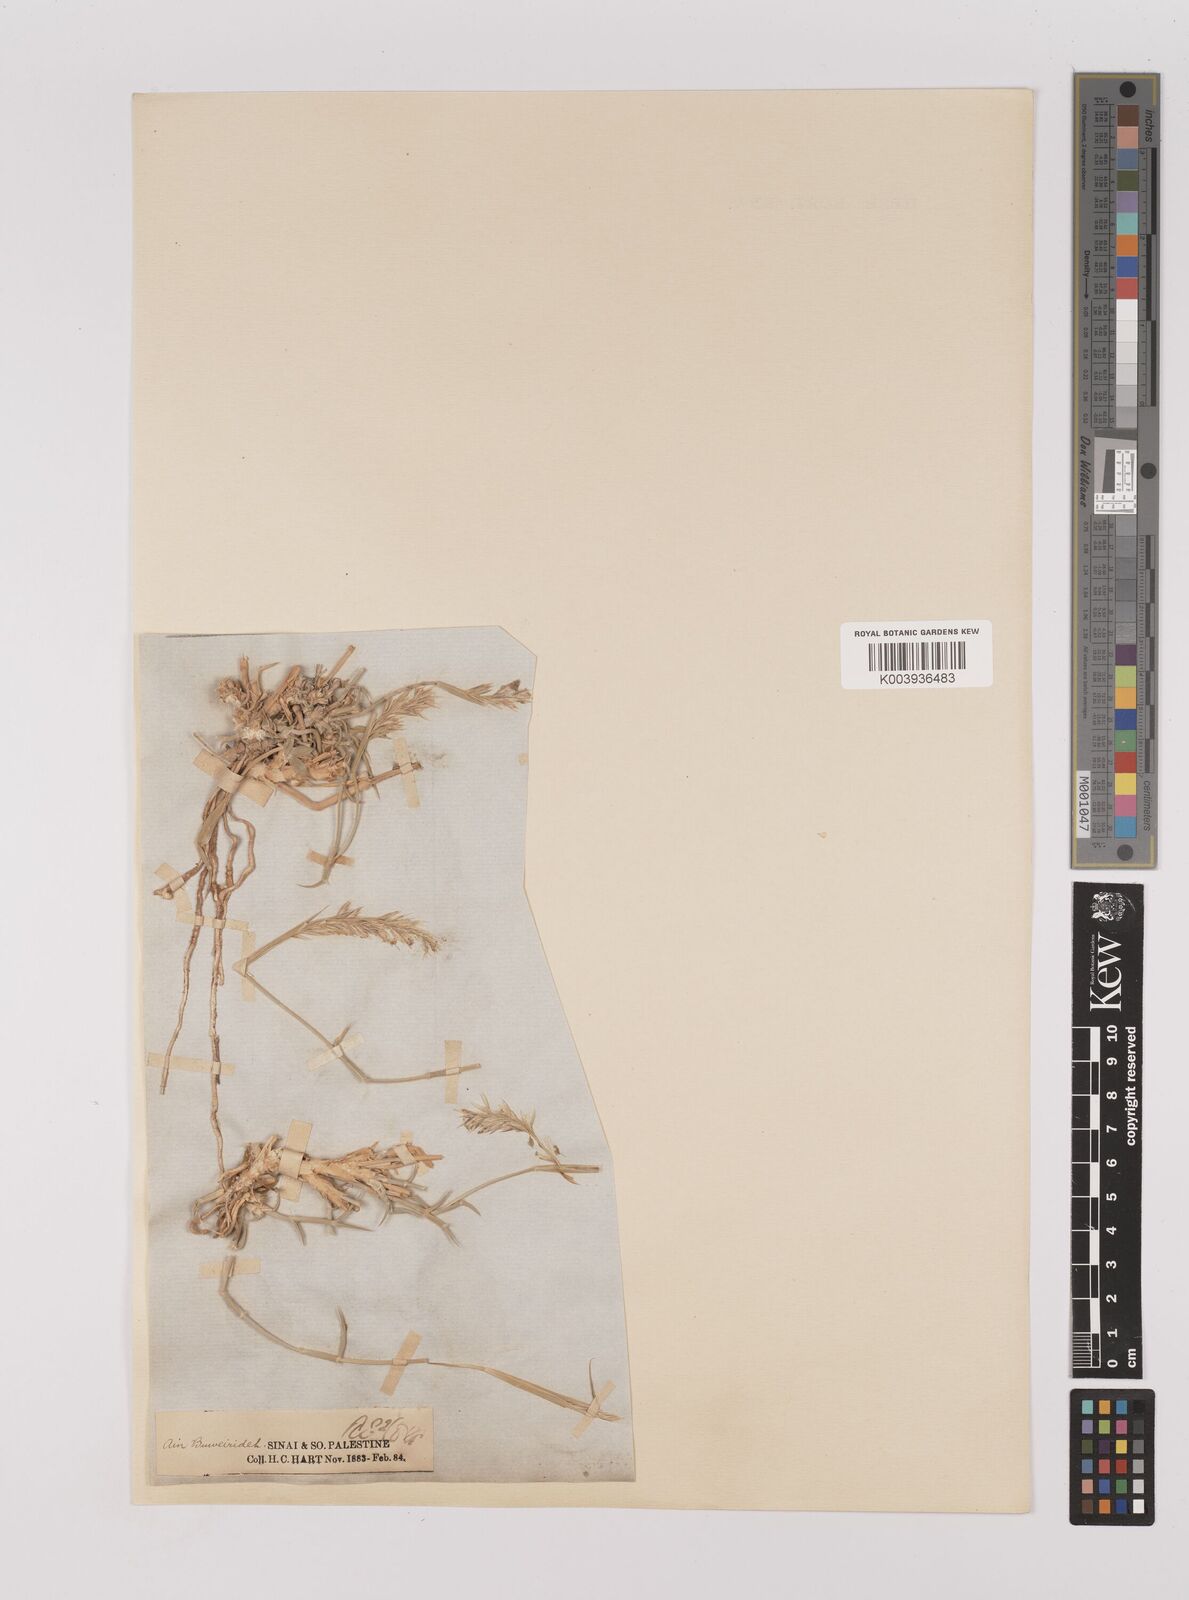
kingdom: Plantae
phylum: Tracheophyta
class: Liliopsida
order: Poales
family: Poaceae
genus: Centropodia
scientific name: Centropodia forskaolii
